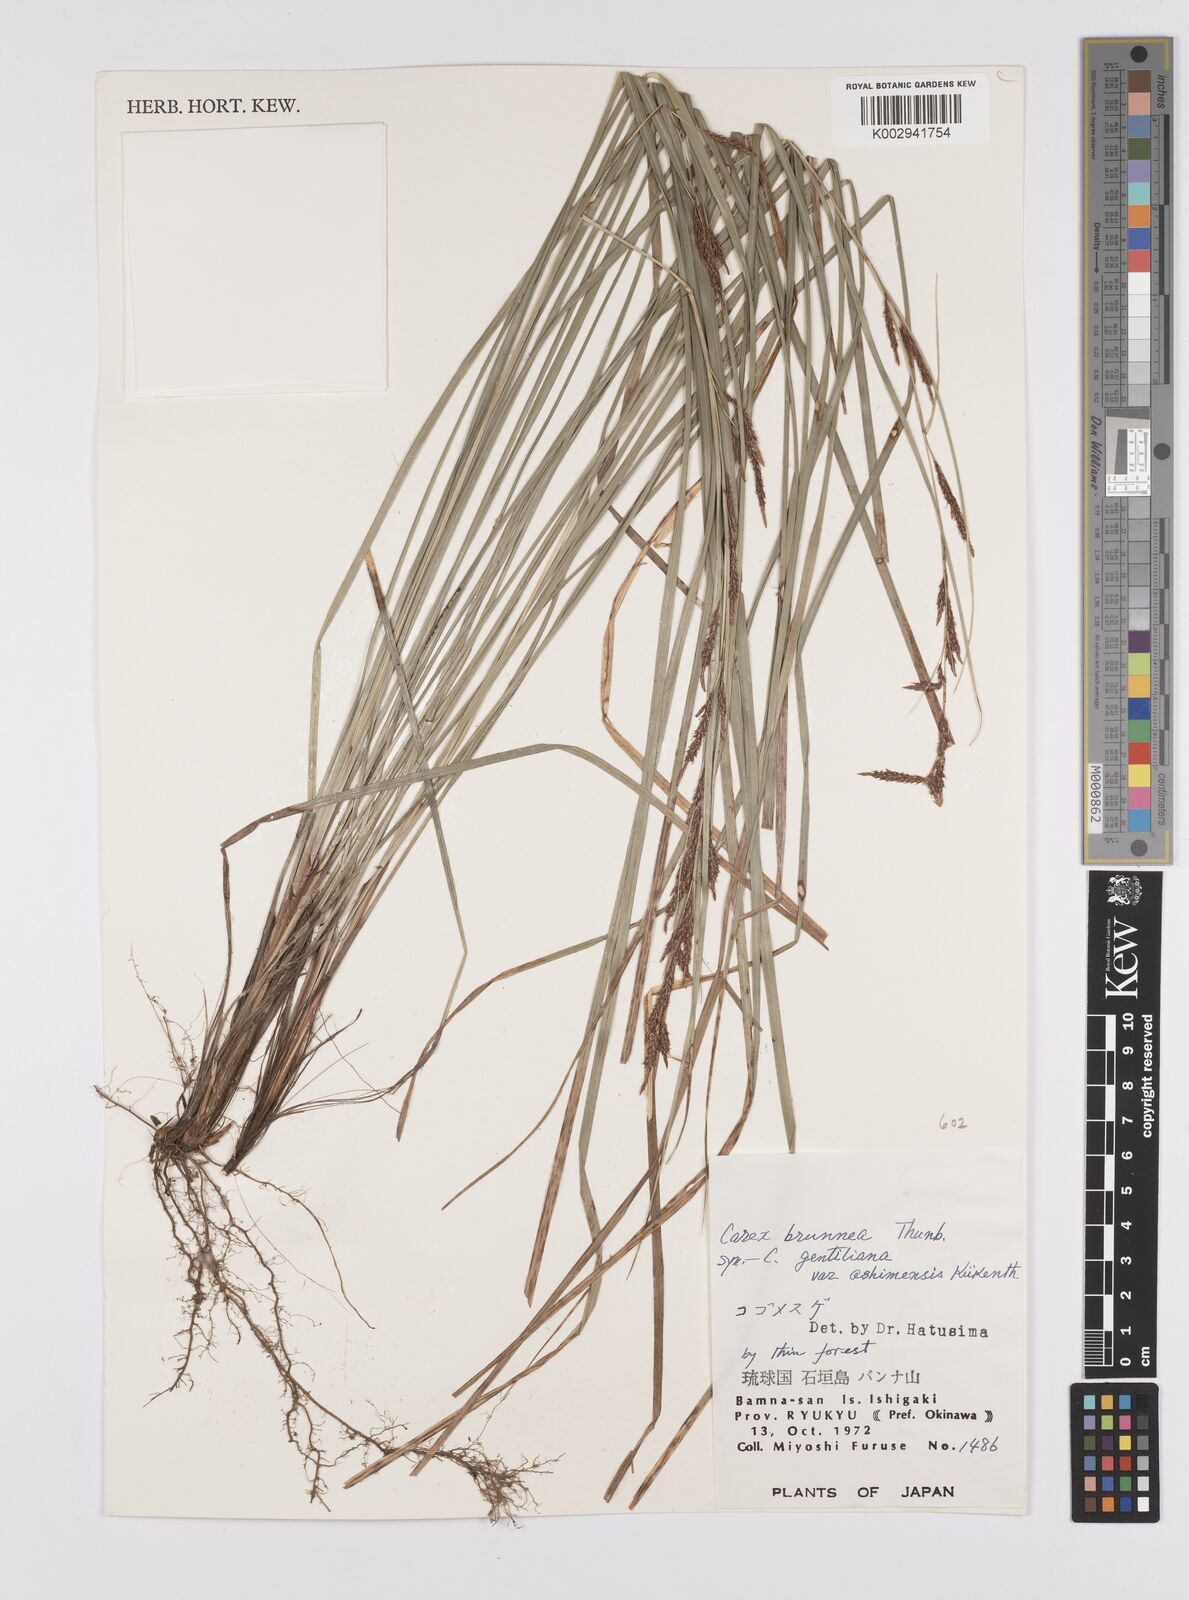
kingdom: Plantae
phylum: Tracheophyta
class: Liliopsida
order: Poales
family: Cyperaceae
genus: Carex
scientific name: Carex brunnea
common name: Greater brown sedge
